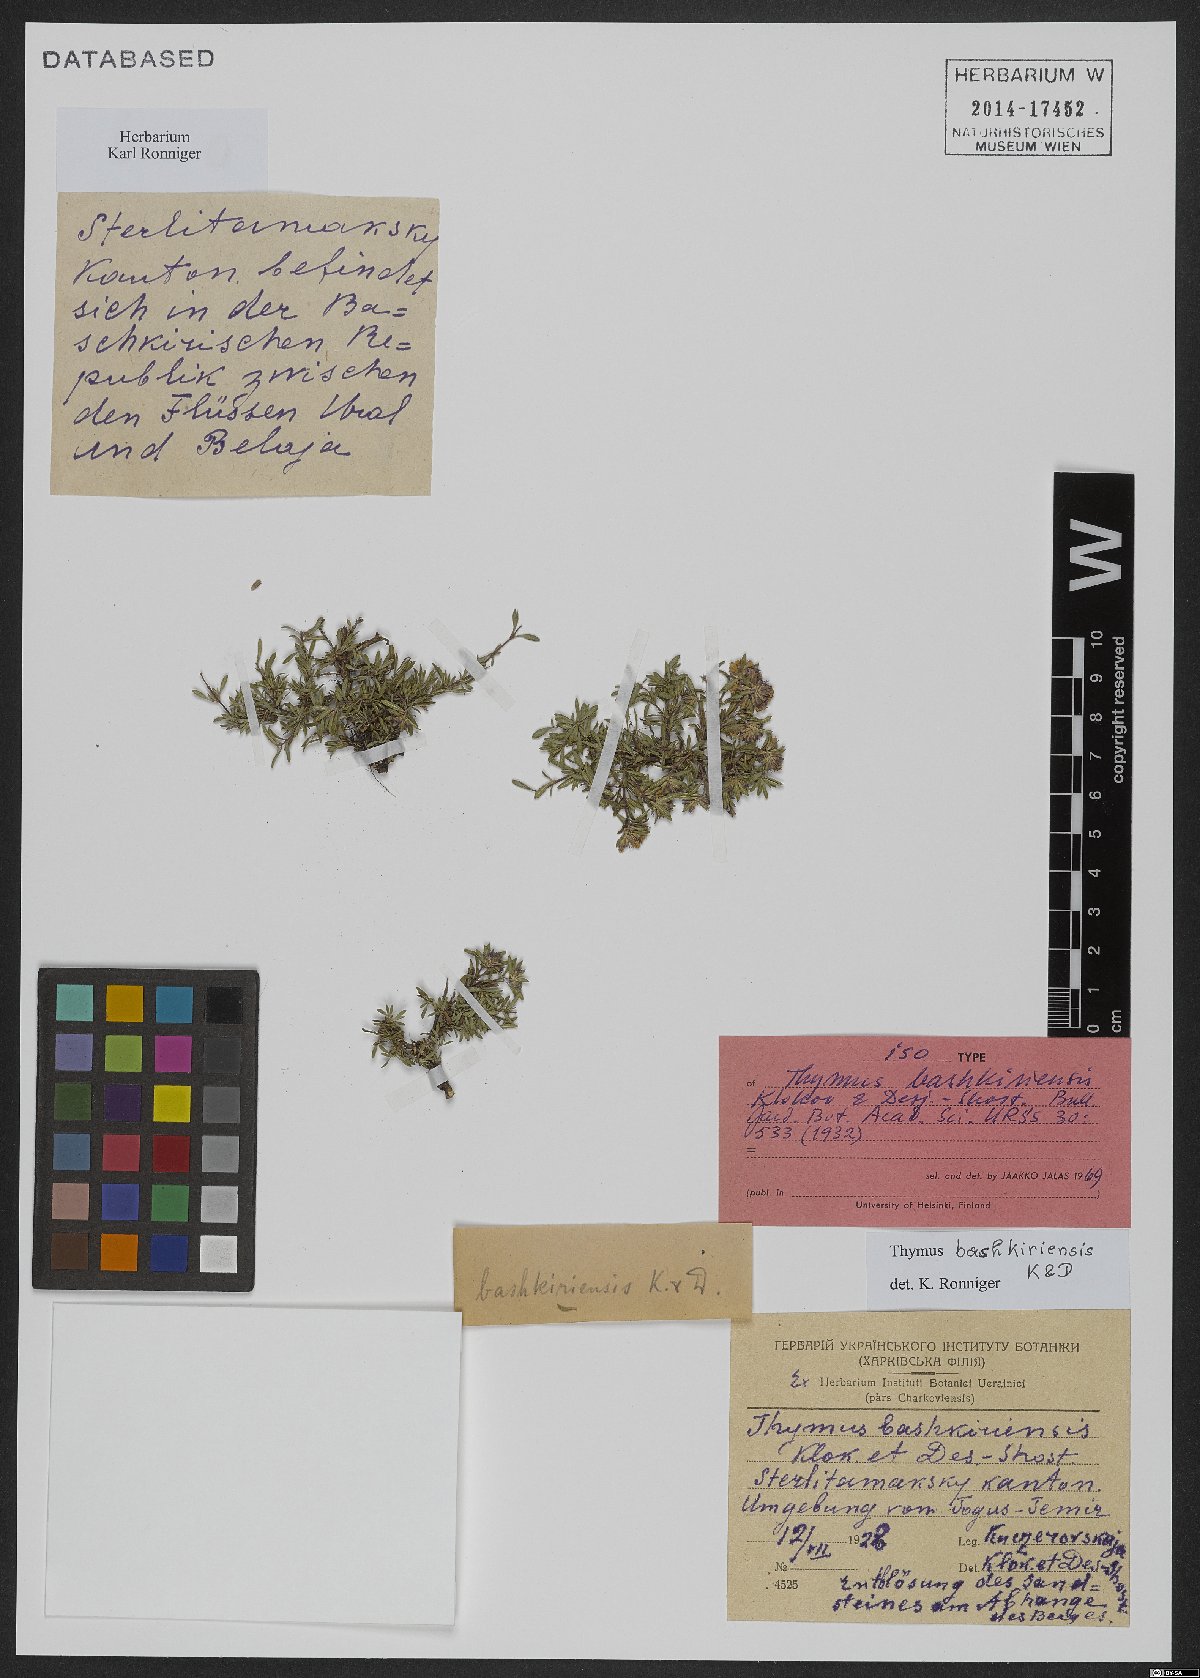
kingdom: Plantae
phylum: Tracheophyta
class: Magnoliopsida
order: Lamiales
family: Lamiaceae
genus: Thymus
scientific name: Thymus bashkiriensis
